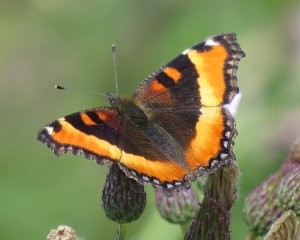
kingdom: Animalia
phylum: Arthropoda
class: Insecta
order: Lepidoptera
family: Nymphalidae
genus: Aglais
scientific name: Aglais milberti
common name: Milbert's Tortoiseshell
